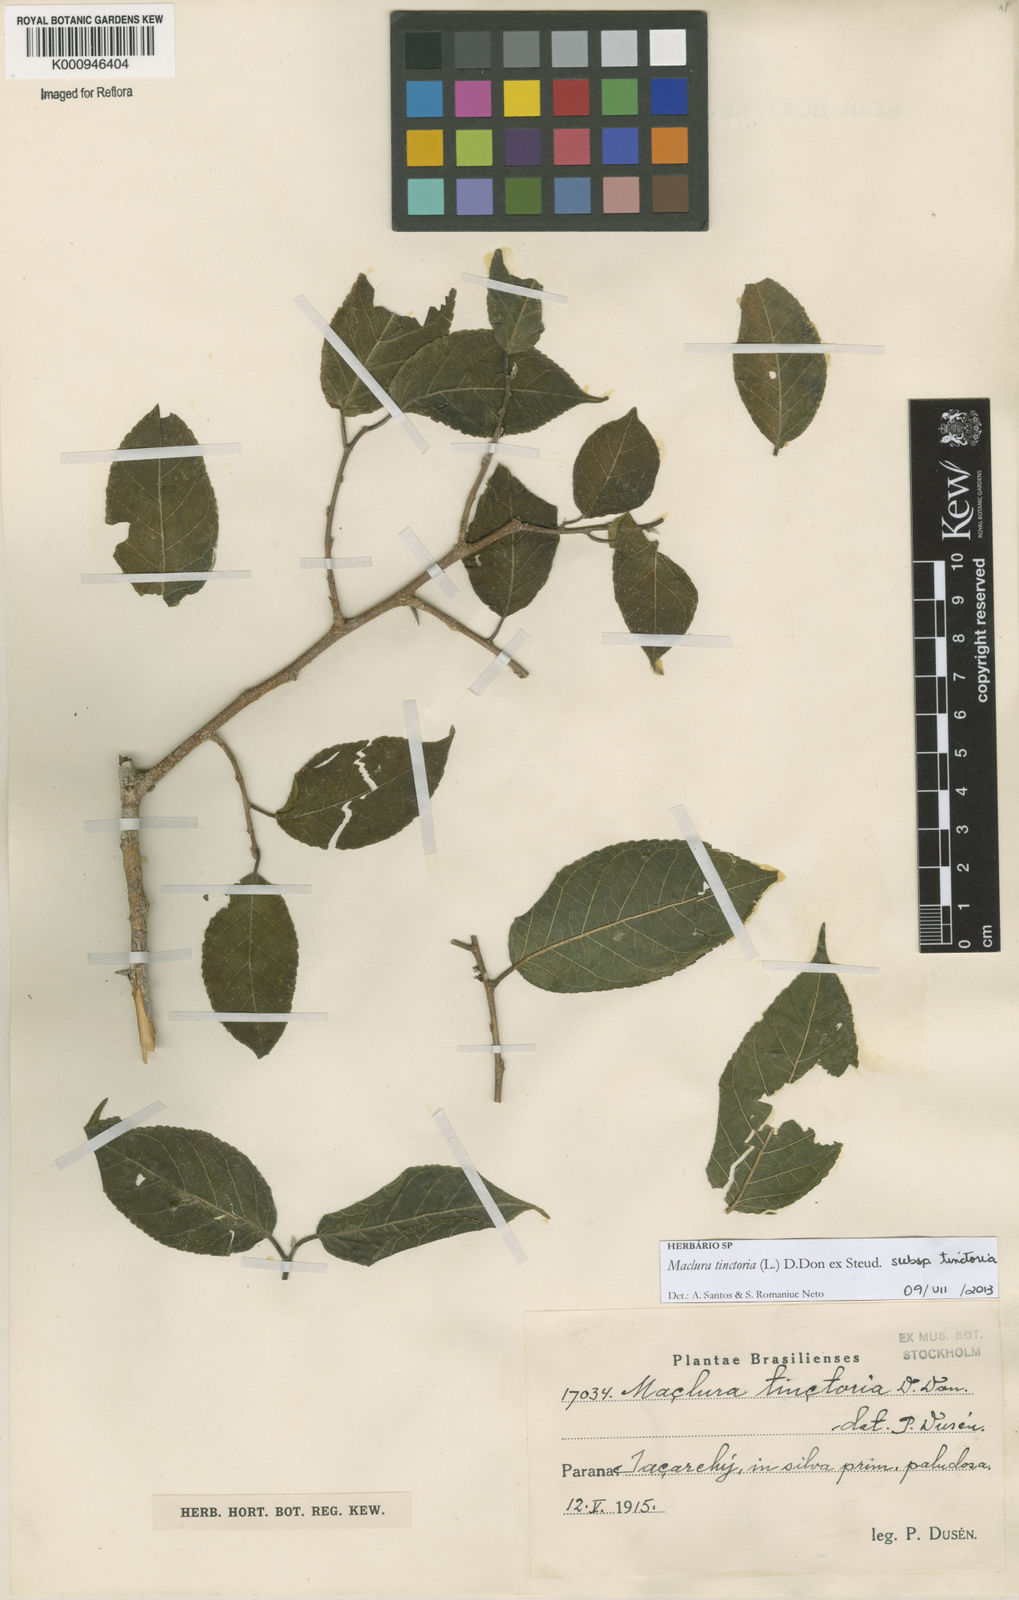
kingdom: Plantae
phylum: Tracheophyta
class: Magnoliopsida
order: Rosales
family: Moraceae
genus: Maclura
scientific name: Maclura tinctoria
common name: Old fustic
